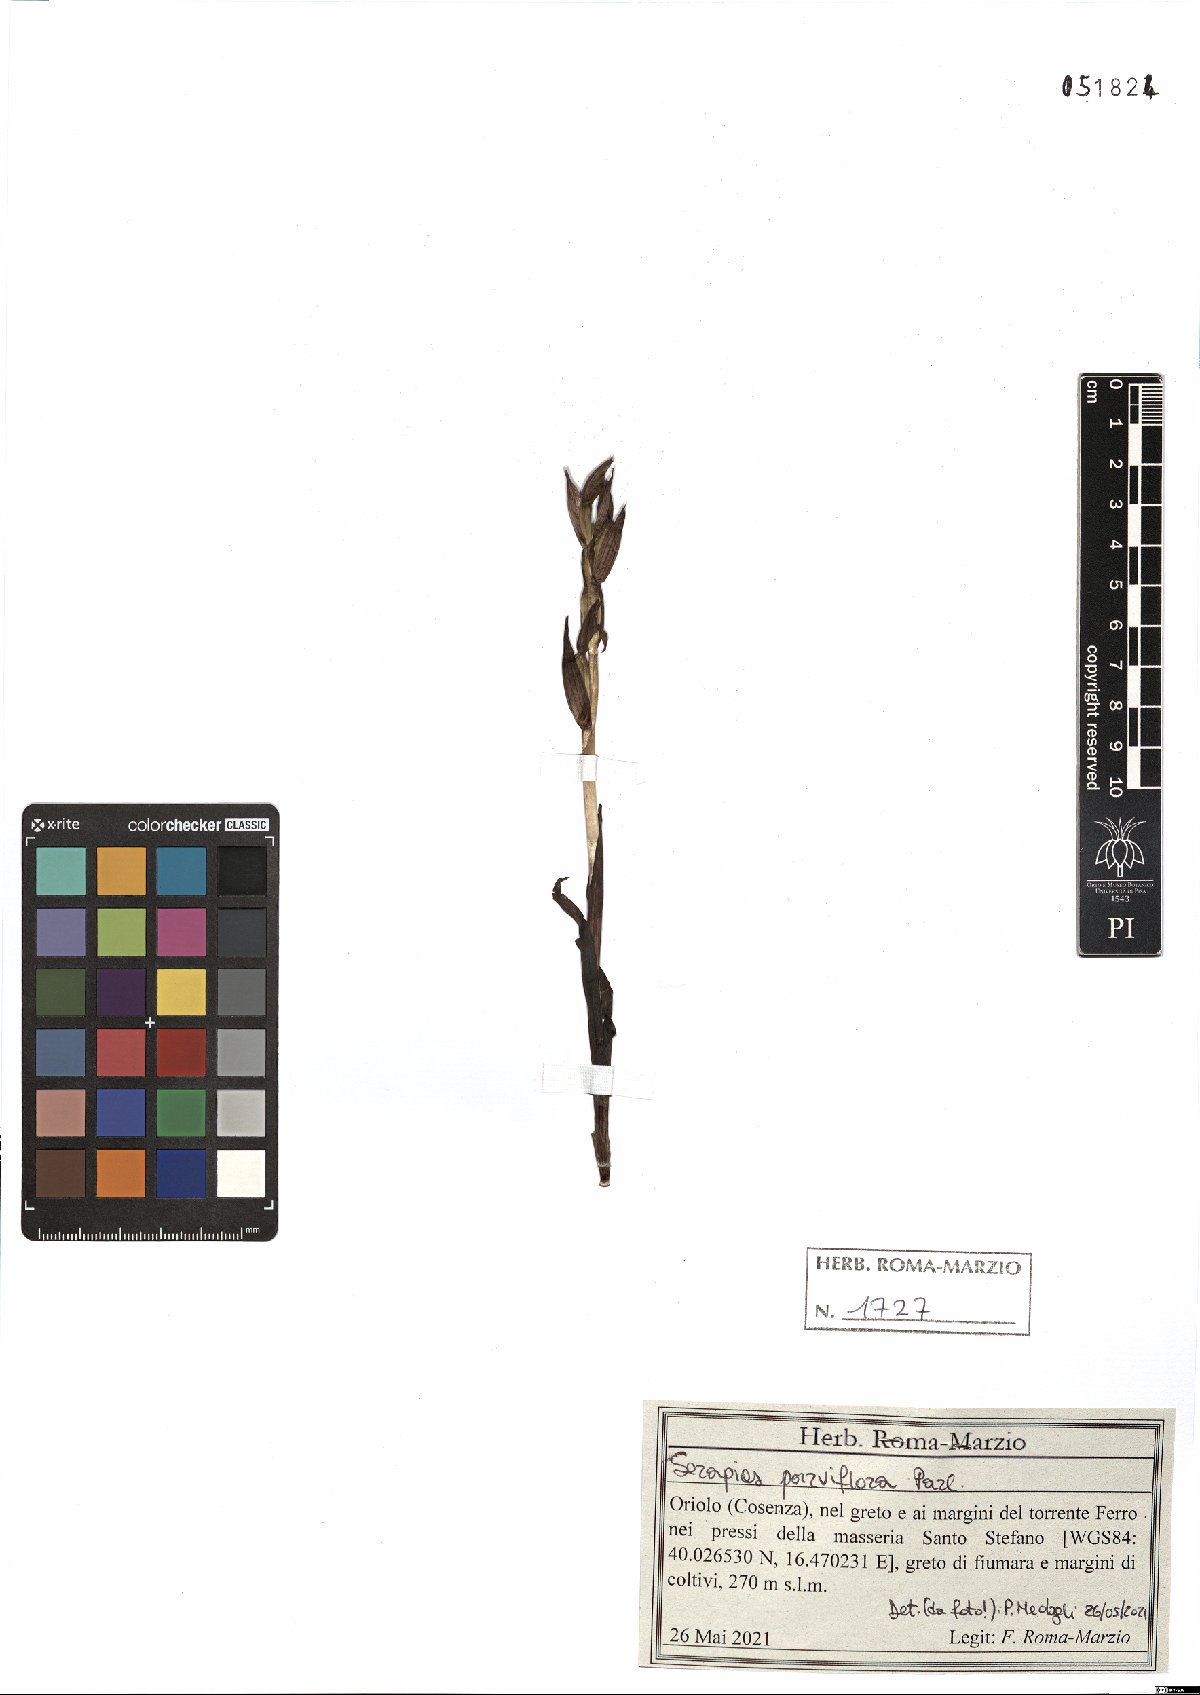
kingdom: Plantae
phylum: Tracheophyta
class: Liliopsida
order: Asparagales
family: Orchidaceae
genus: Serapias
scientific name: Serapias parviflora
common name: Small-flowered tongue-orchid
